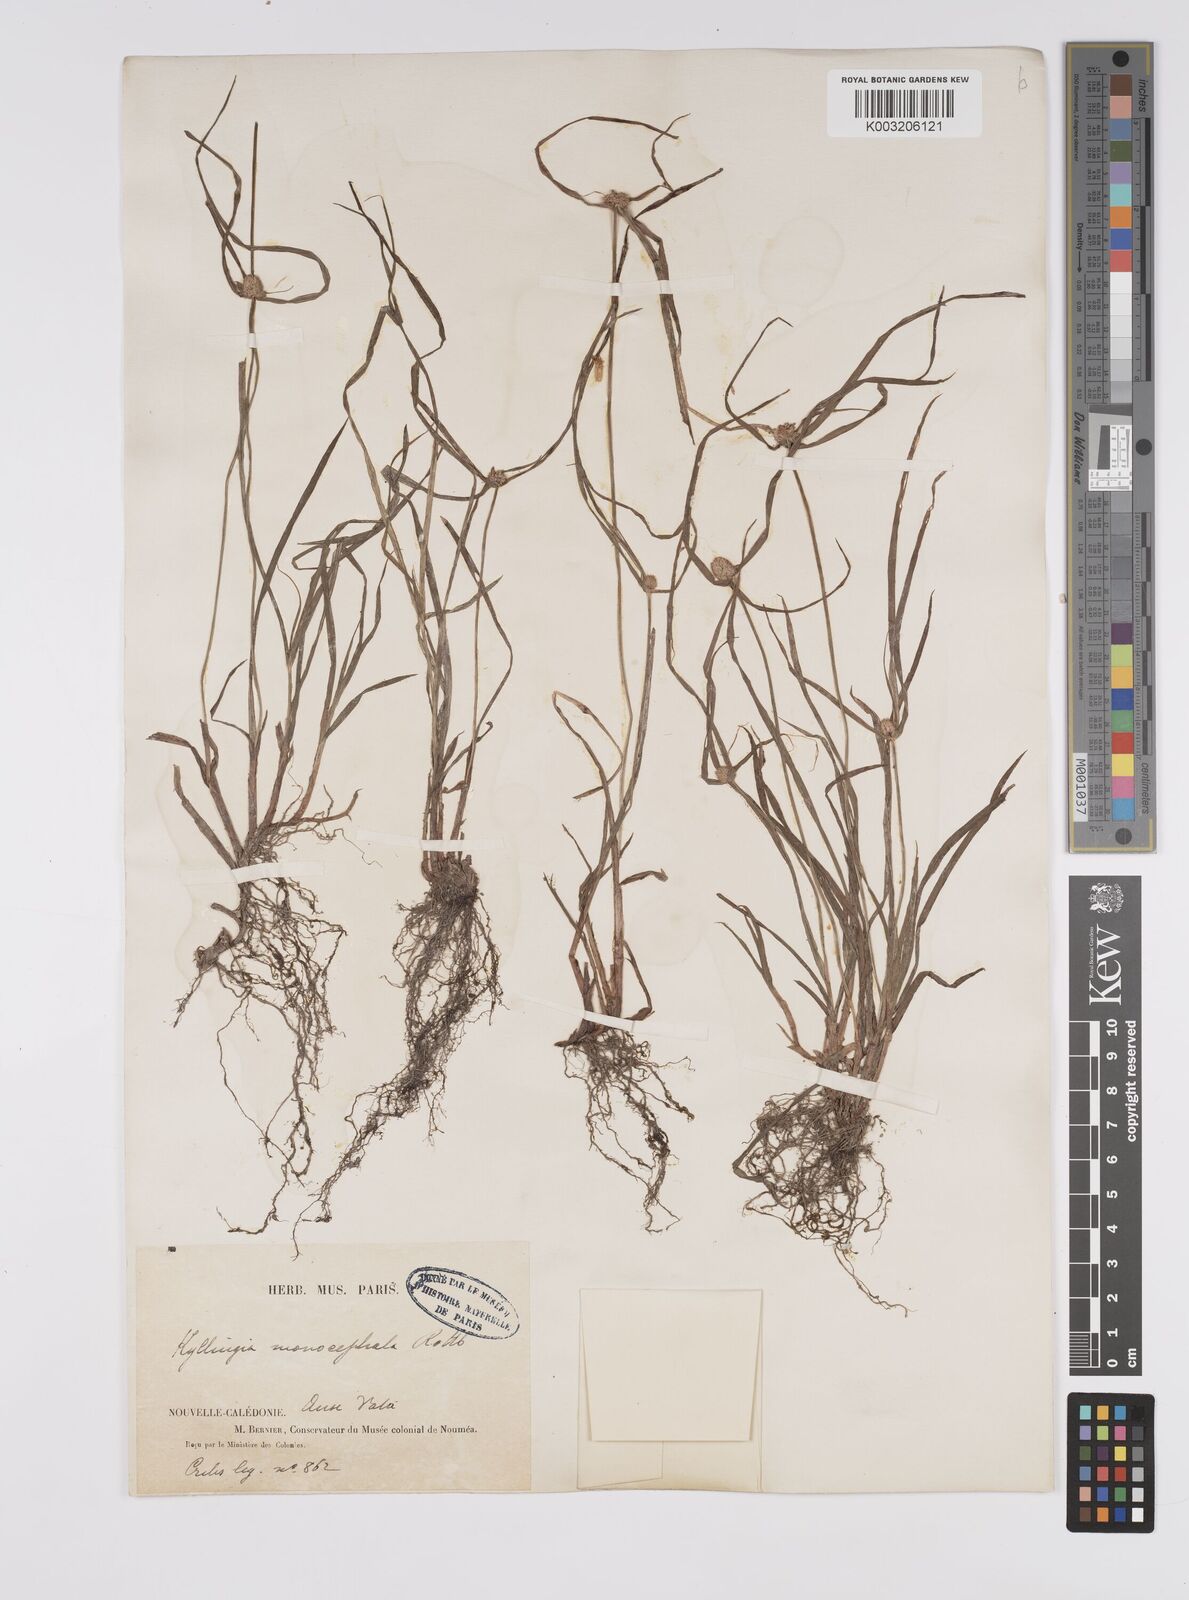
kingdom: Plantae
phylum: Tracheophyta
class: Liliopsida
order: Poales
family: Cyperaceae
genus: Cyperus
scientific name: Cyperus nemoralis
